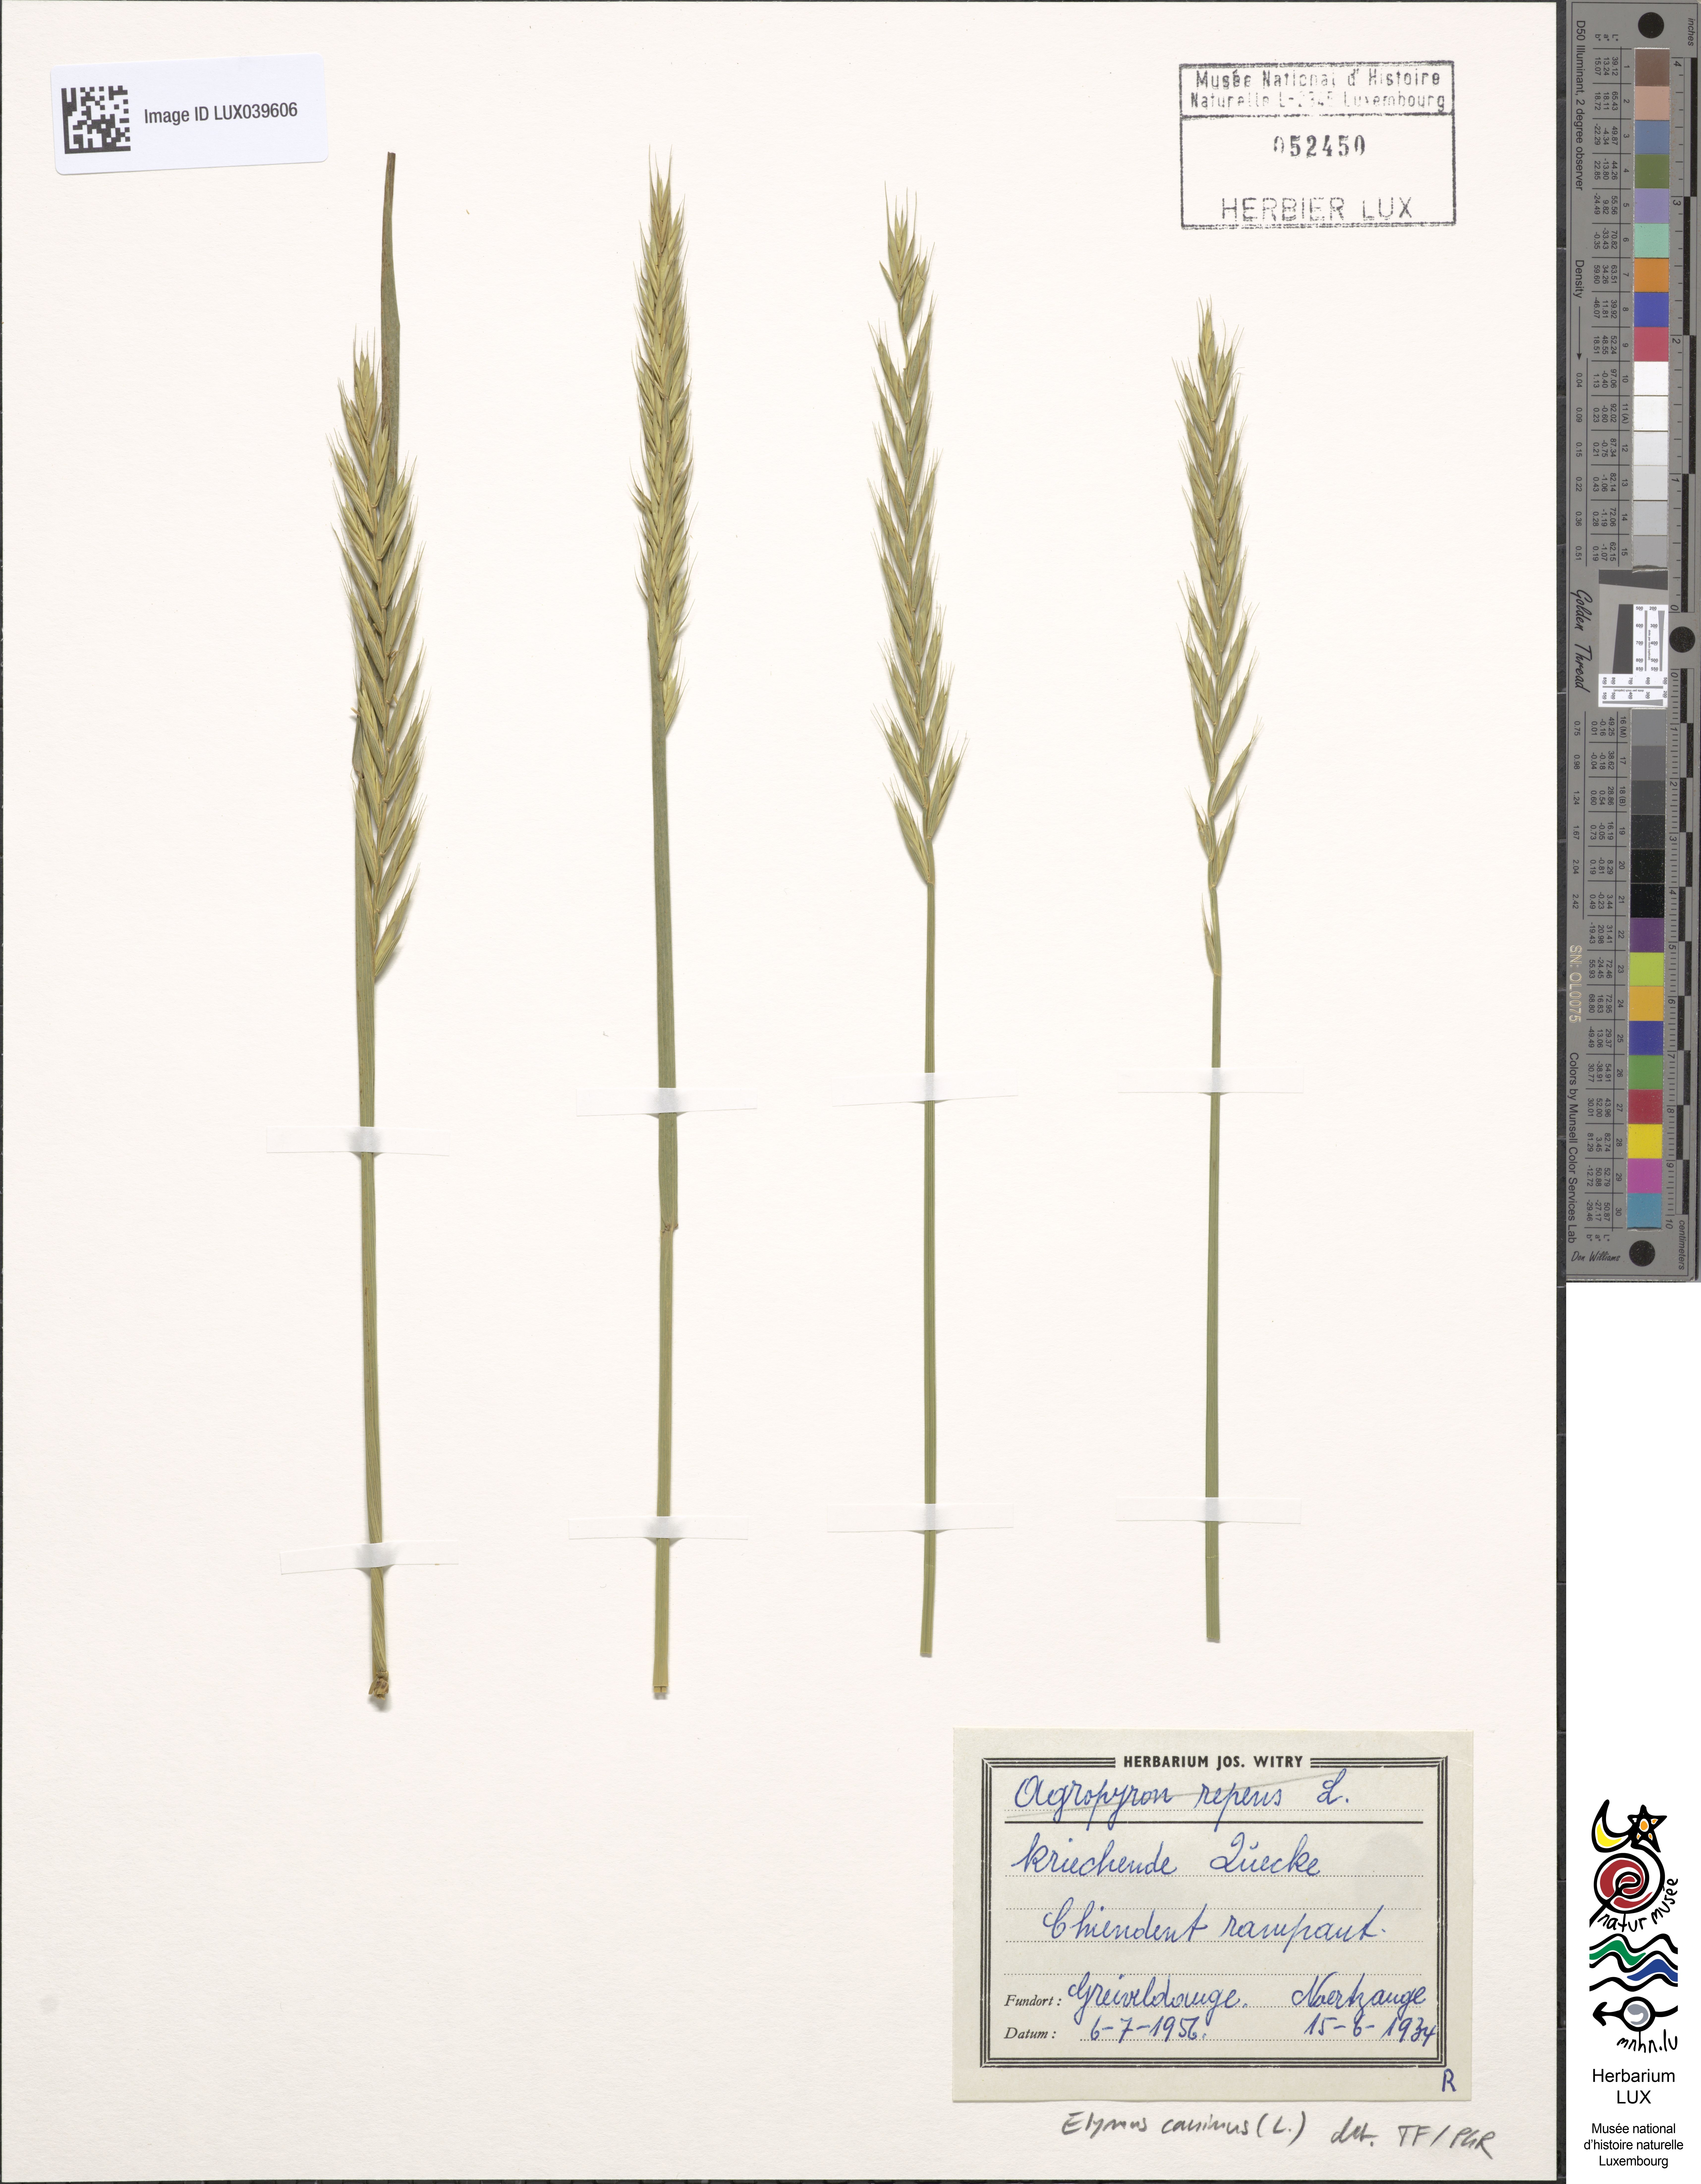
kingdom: Plantae
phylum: Tracheophyta
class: Liliopsida
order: Poales
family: Poaceae
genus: Elymus
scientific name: Elymus caninus
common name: Bearded couch
